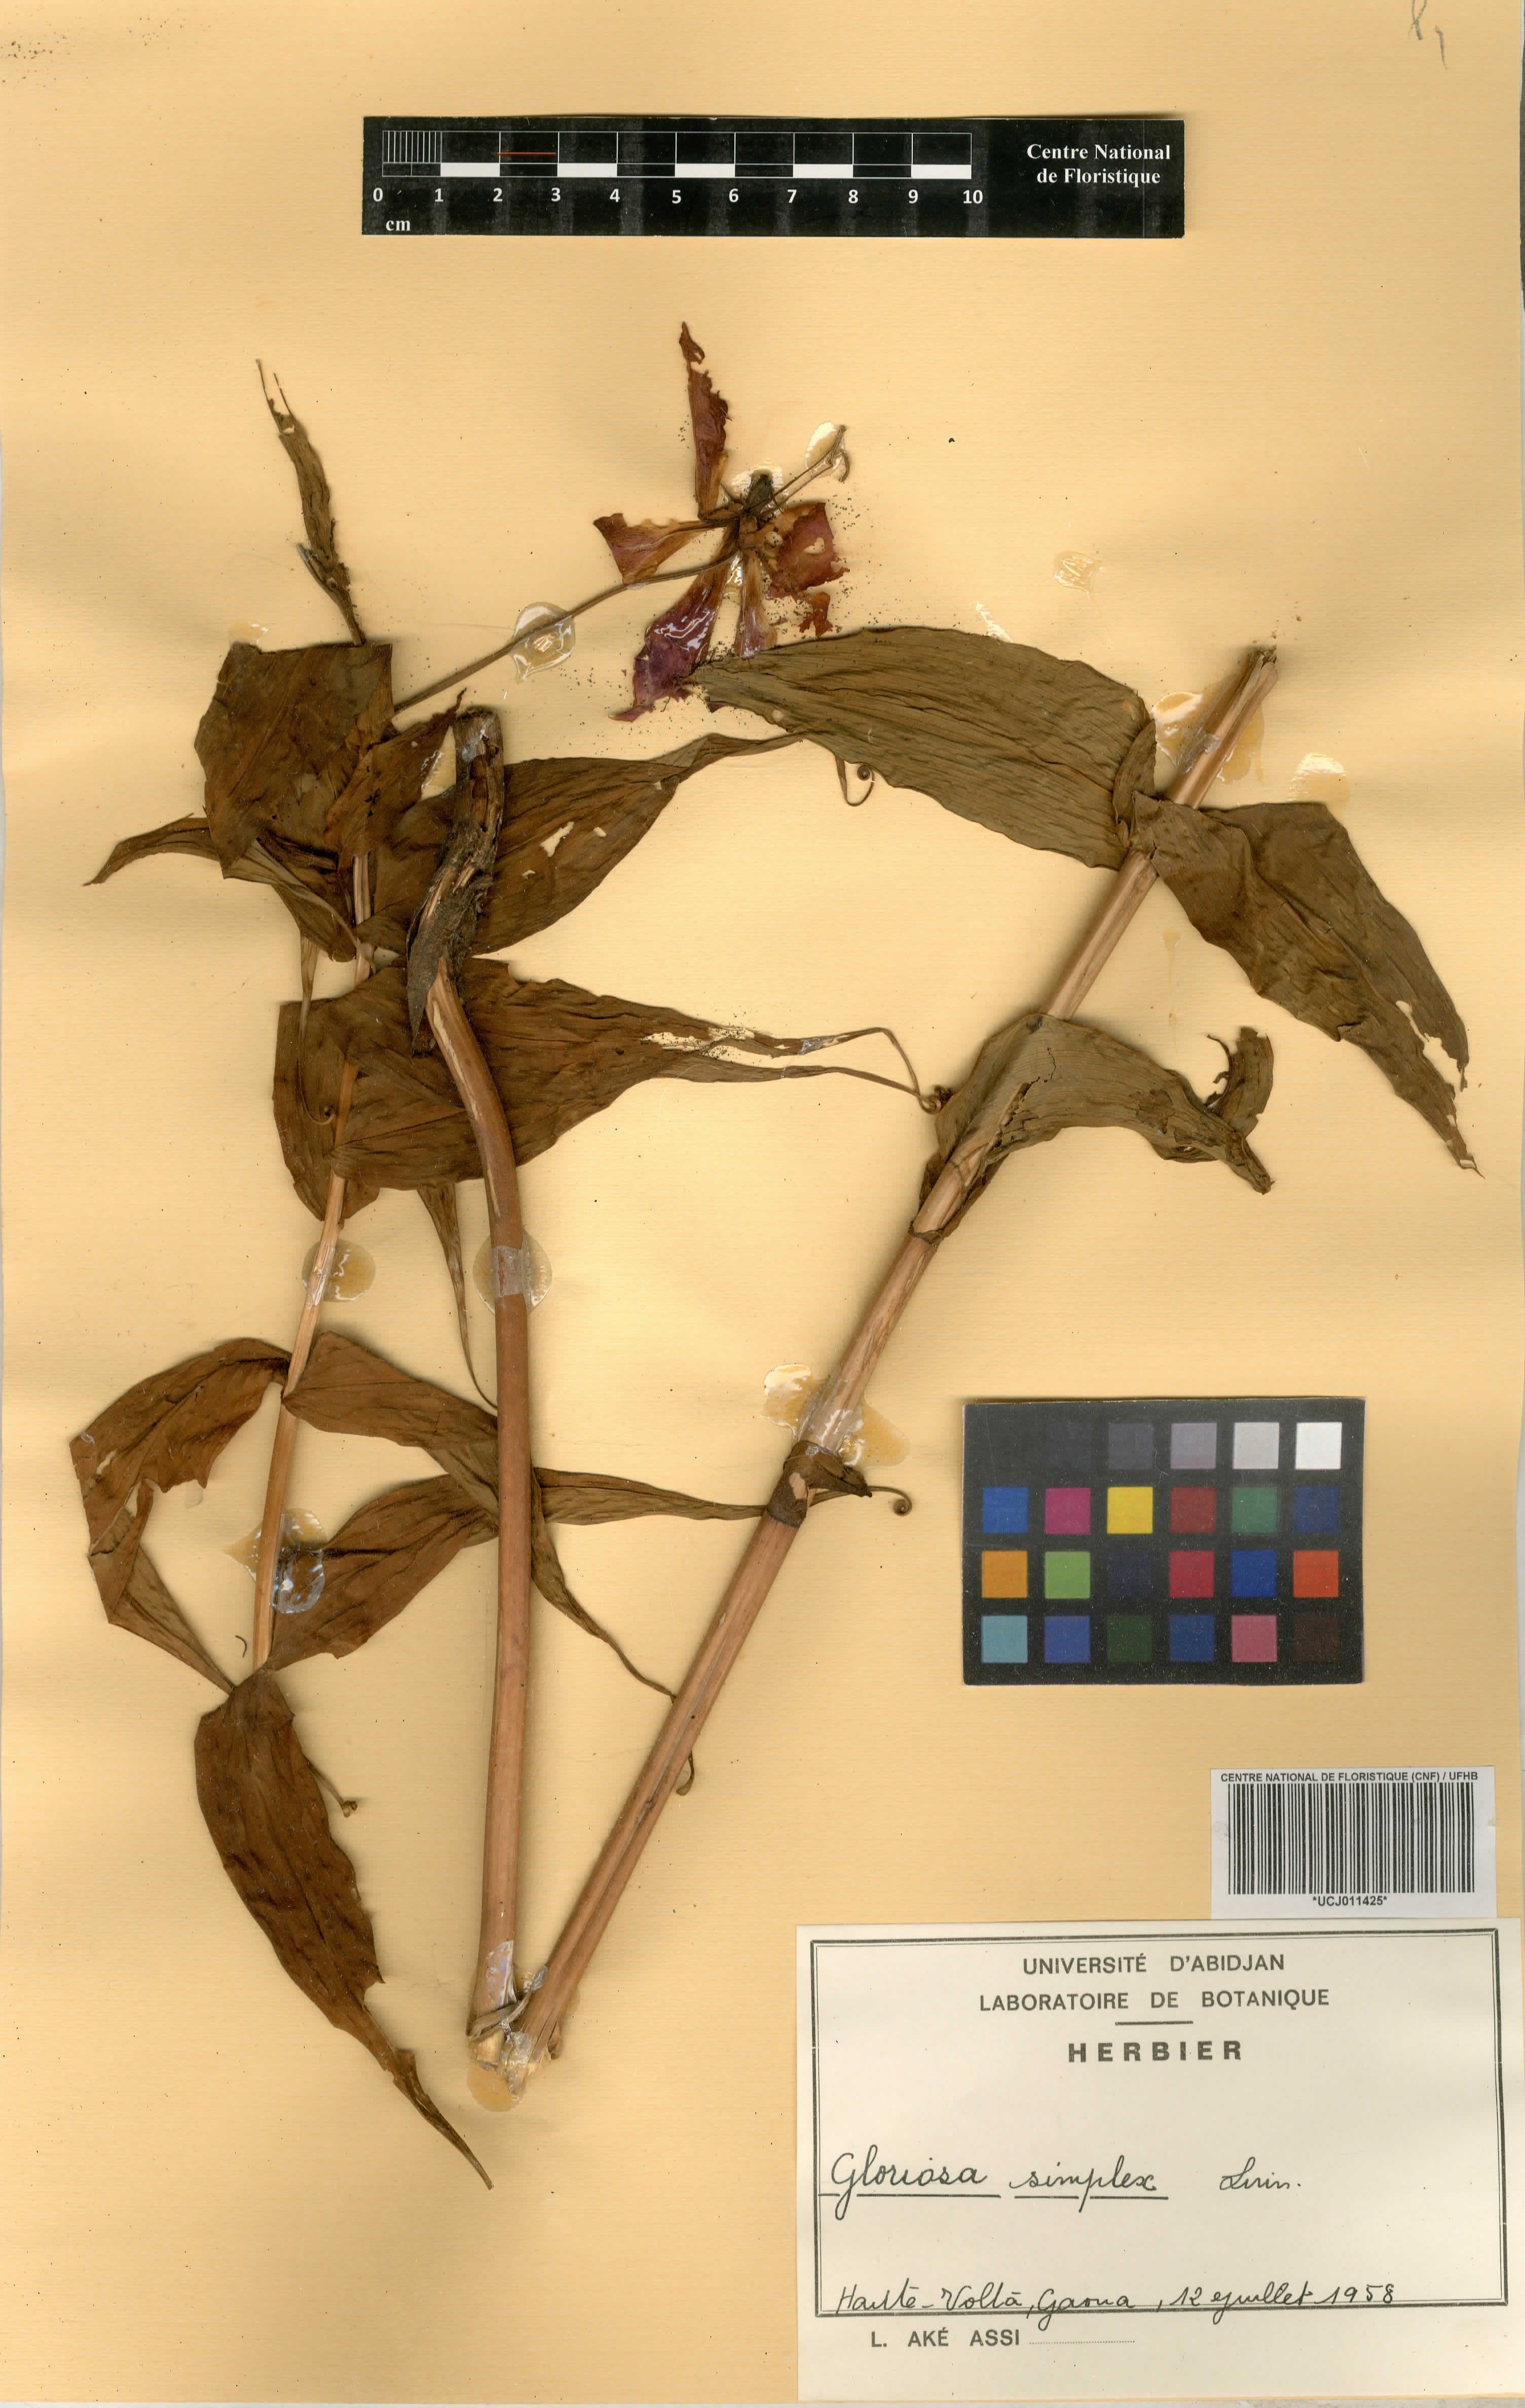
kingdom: Plantae
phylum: Tracheophyta
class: Liliopsida
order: Liliales
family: Colchicaceae
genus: Gloriosa
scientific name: Gloriosa simplex
